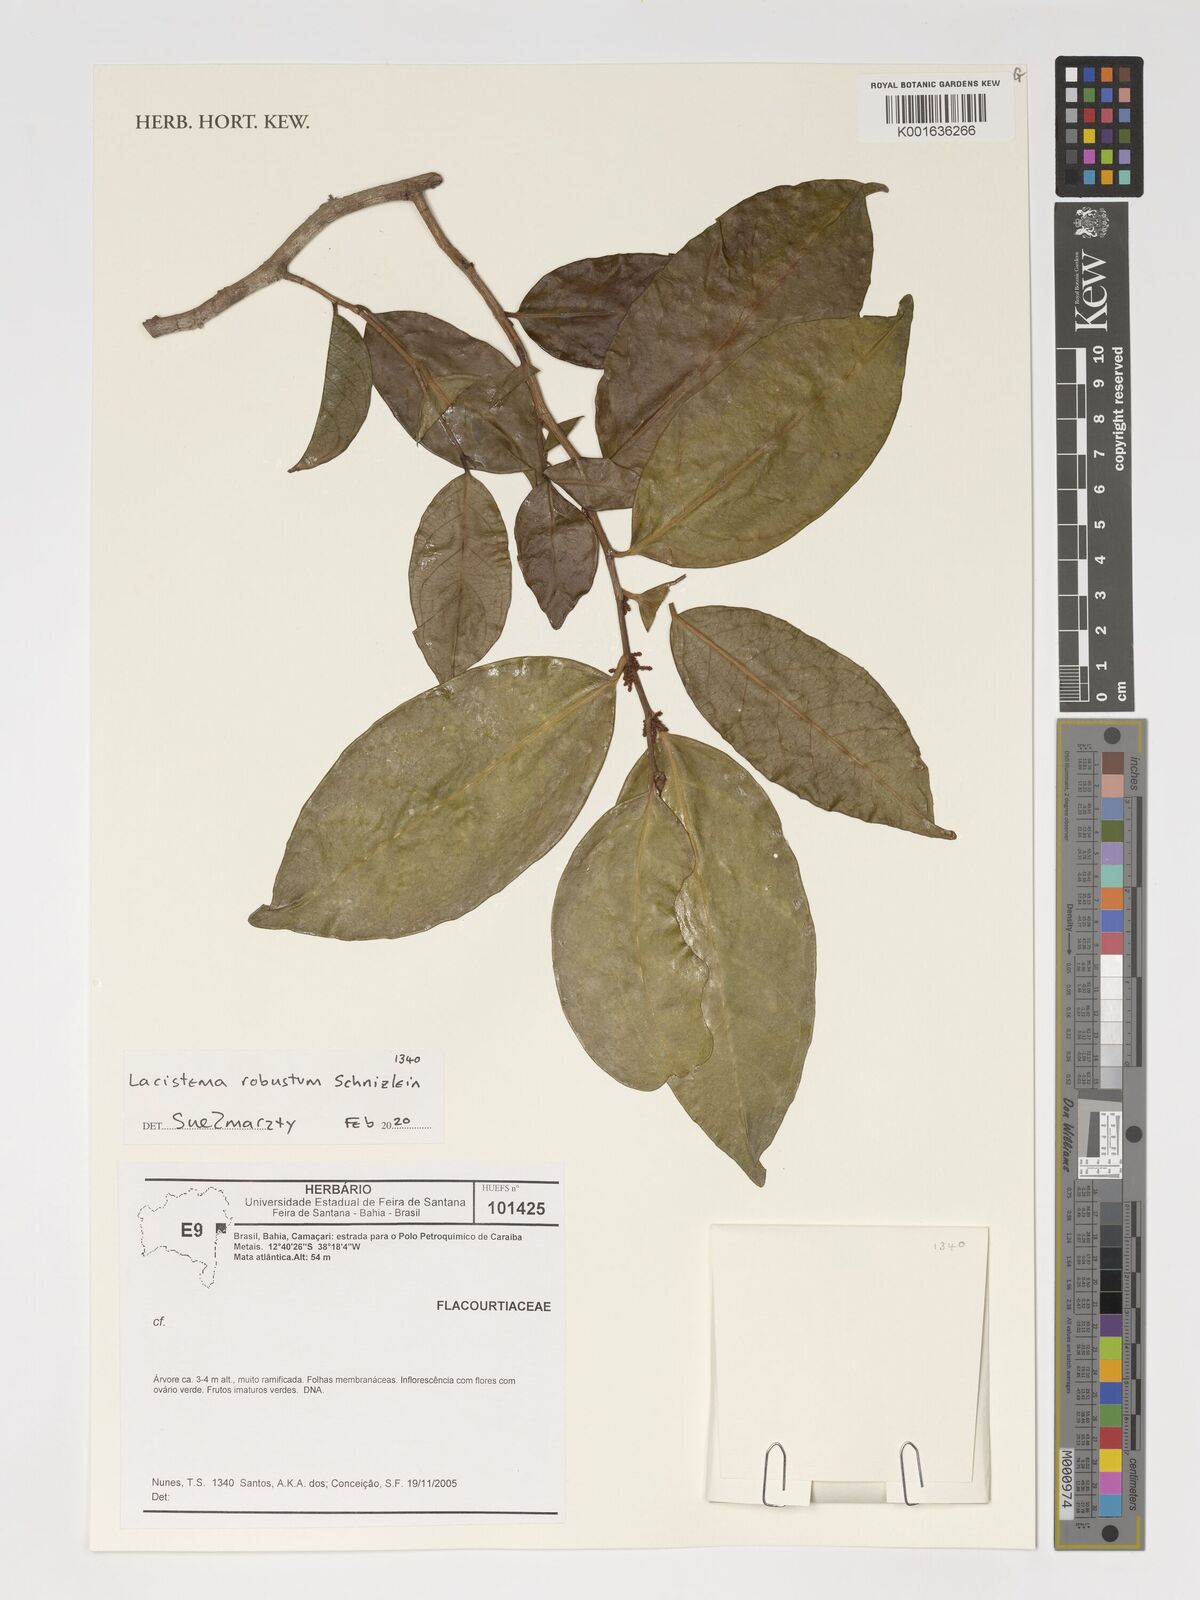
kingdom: Plantae
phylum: Tracheophyta
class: Magnoliopsida
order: Malpighiales
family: Lacistemataceae
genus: Lacistema
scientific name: Lacistema robustum
